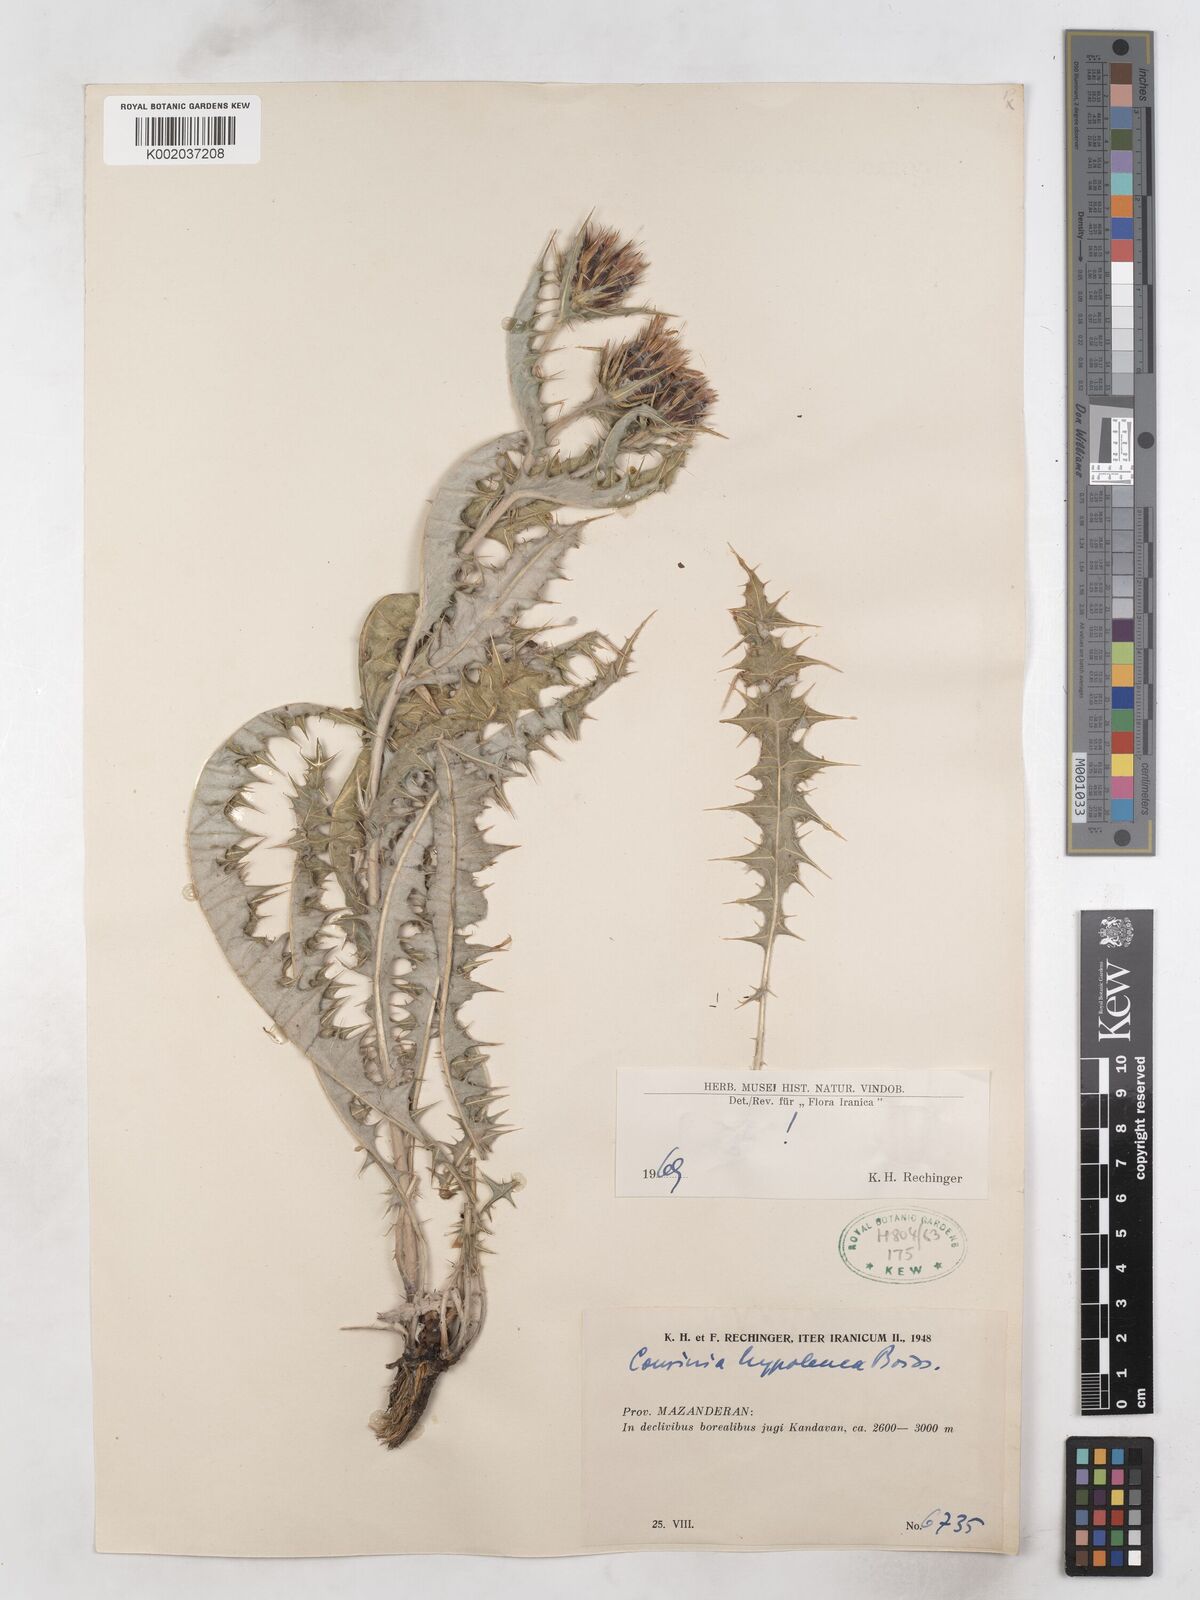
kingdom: Plantae
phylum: Tracheophyta
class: Magnoliopsida
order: Asterales
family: Asteraceae
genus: Cousinia
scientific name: Cousinia hypoleuca
